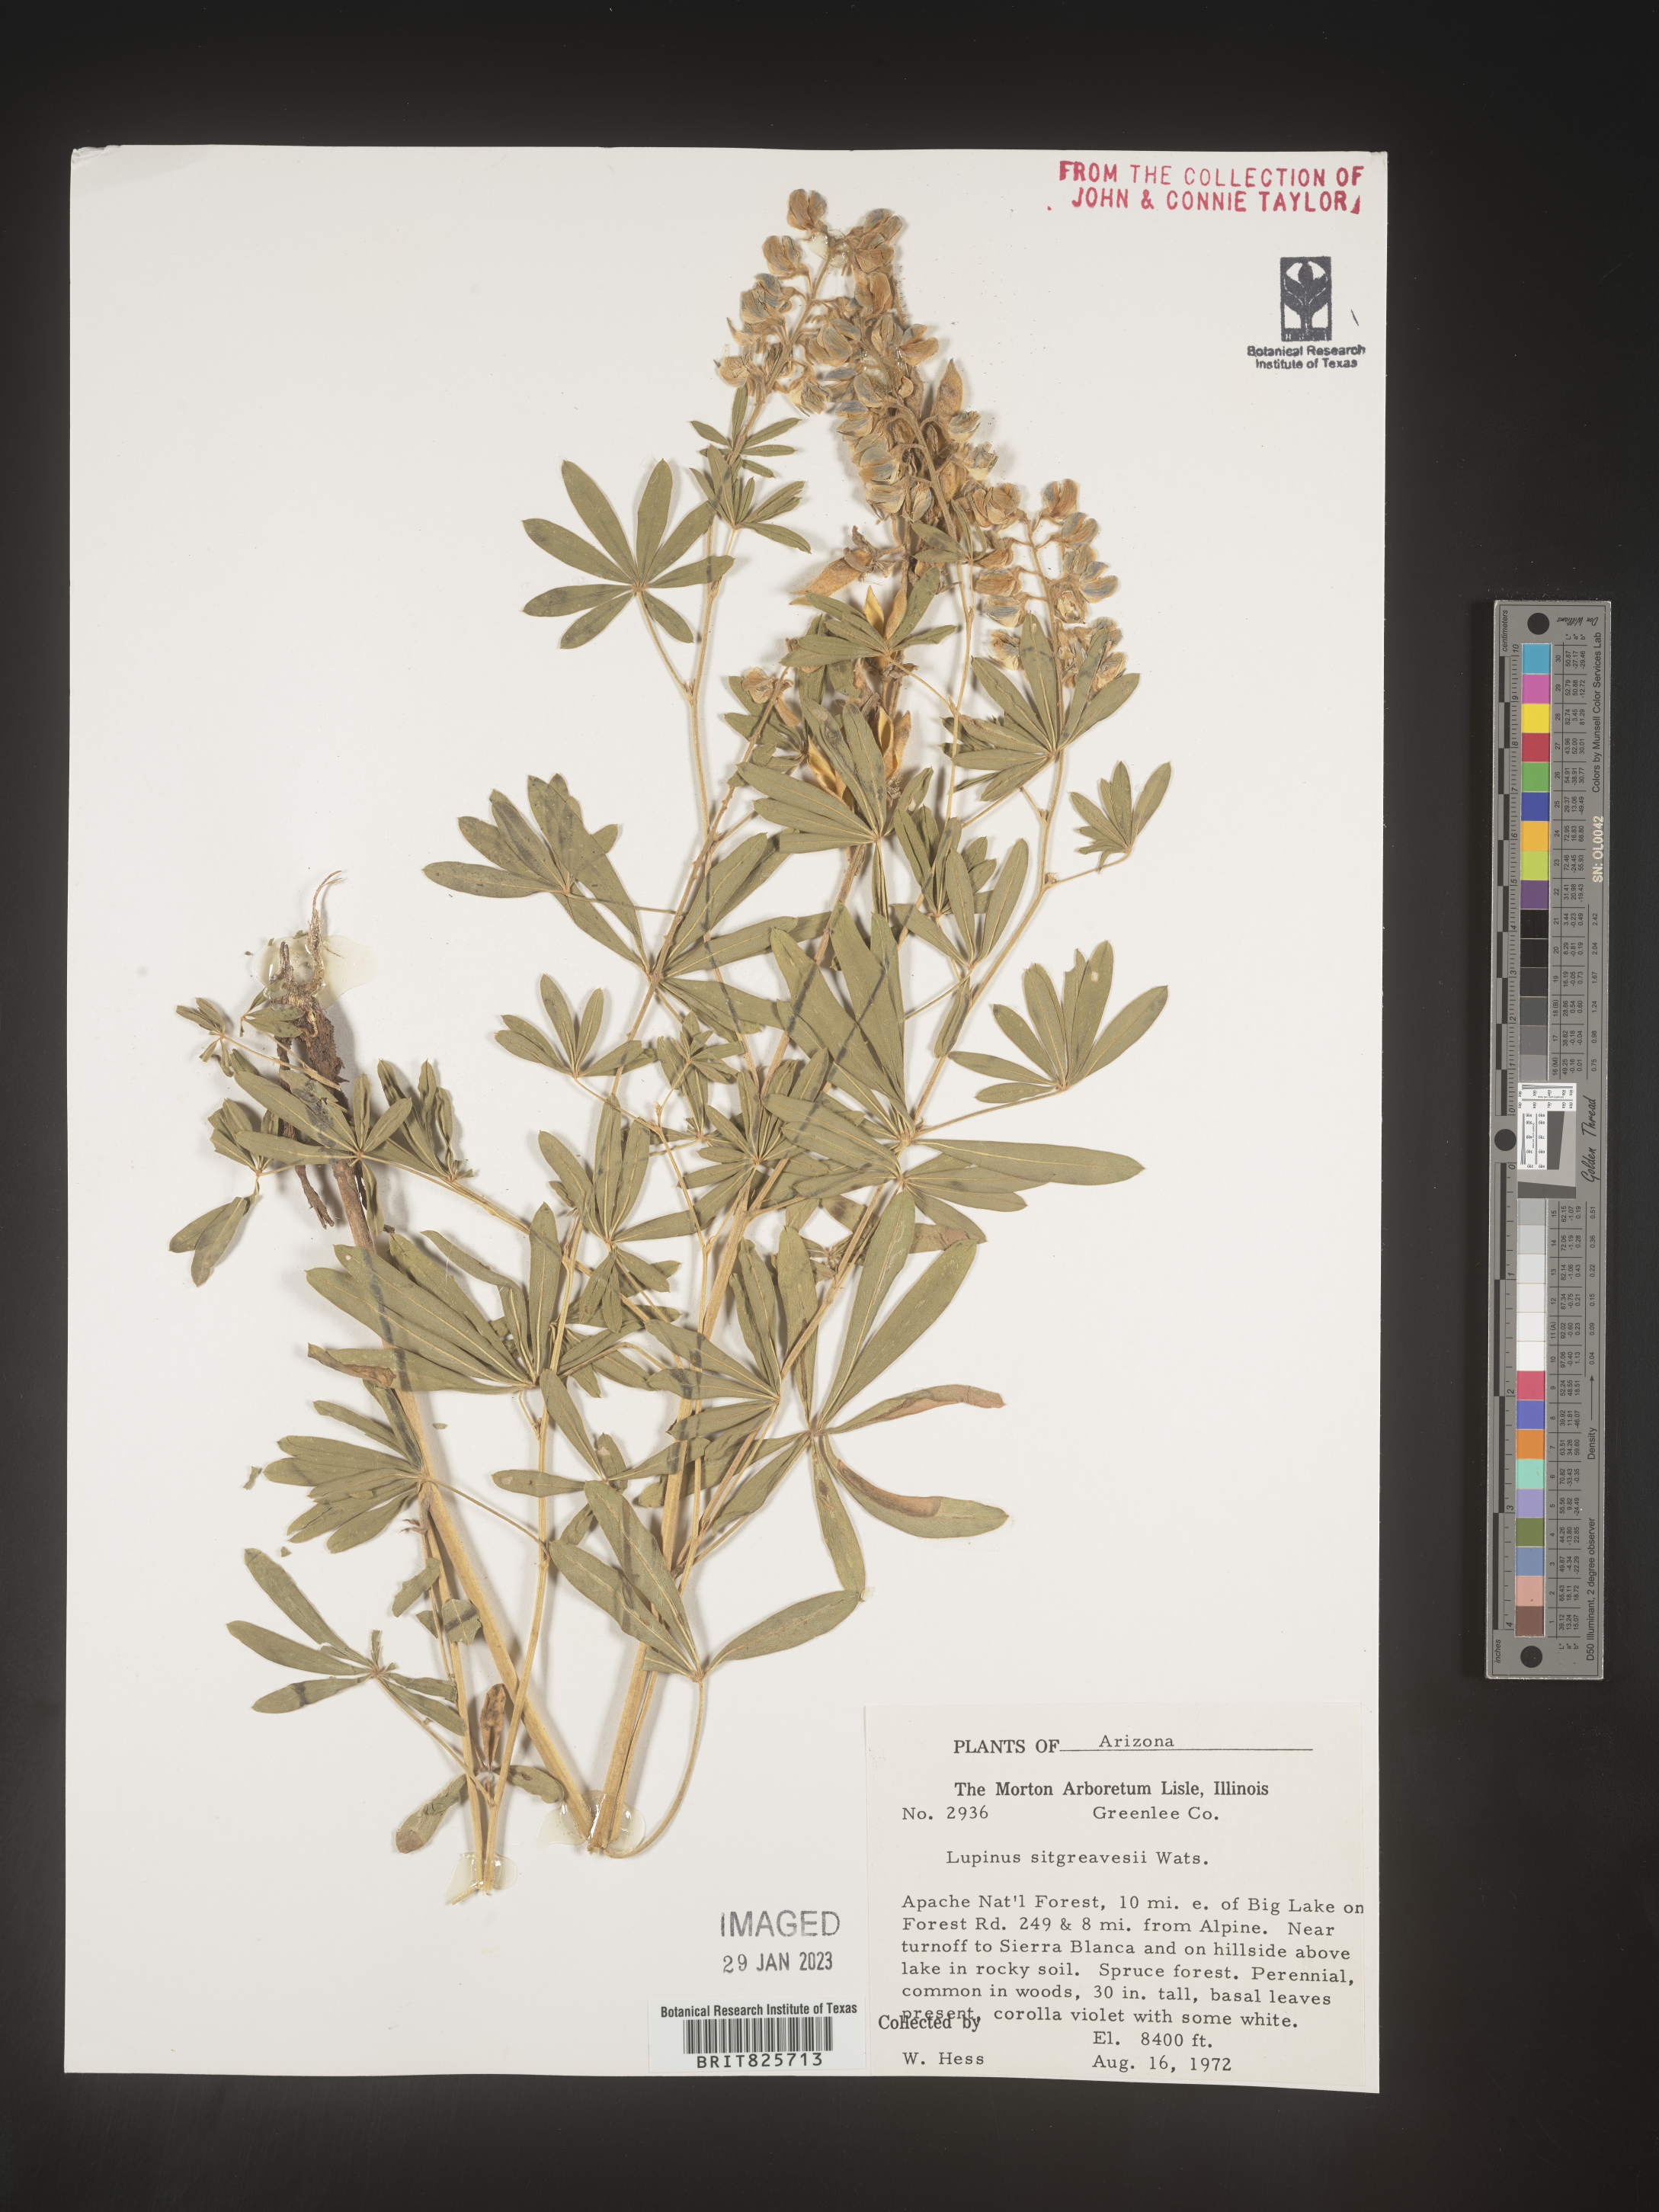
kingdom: Plantae
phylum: Tracheophyta
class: Magnoliopsida
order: Fabales
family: Fabaceae
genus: Lupinus
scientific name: Lupinus
